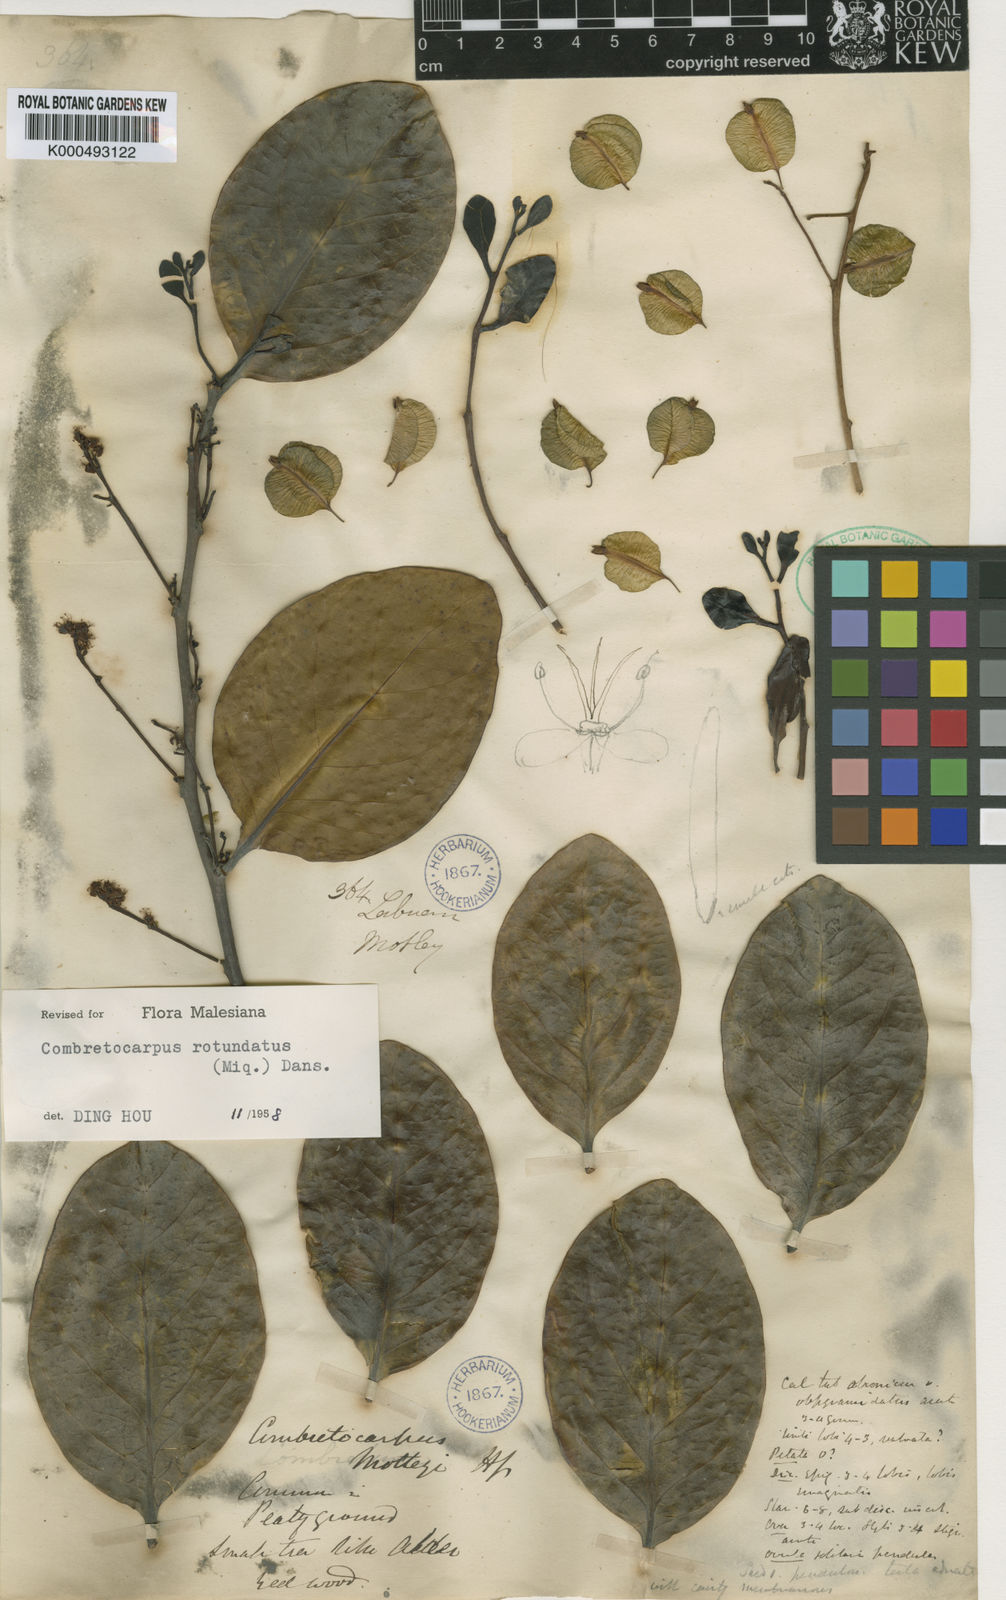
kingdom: Plantae
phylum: Tracheophyta
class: Magnoliopsida
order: Cucurbitales
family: Anisophylleaceae
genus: Combretocarpus
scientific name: Combretocarpus rotundatus
